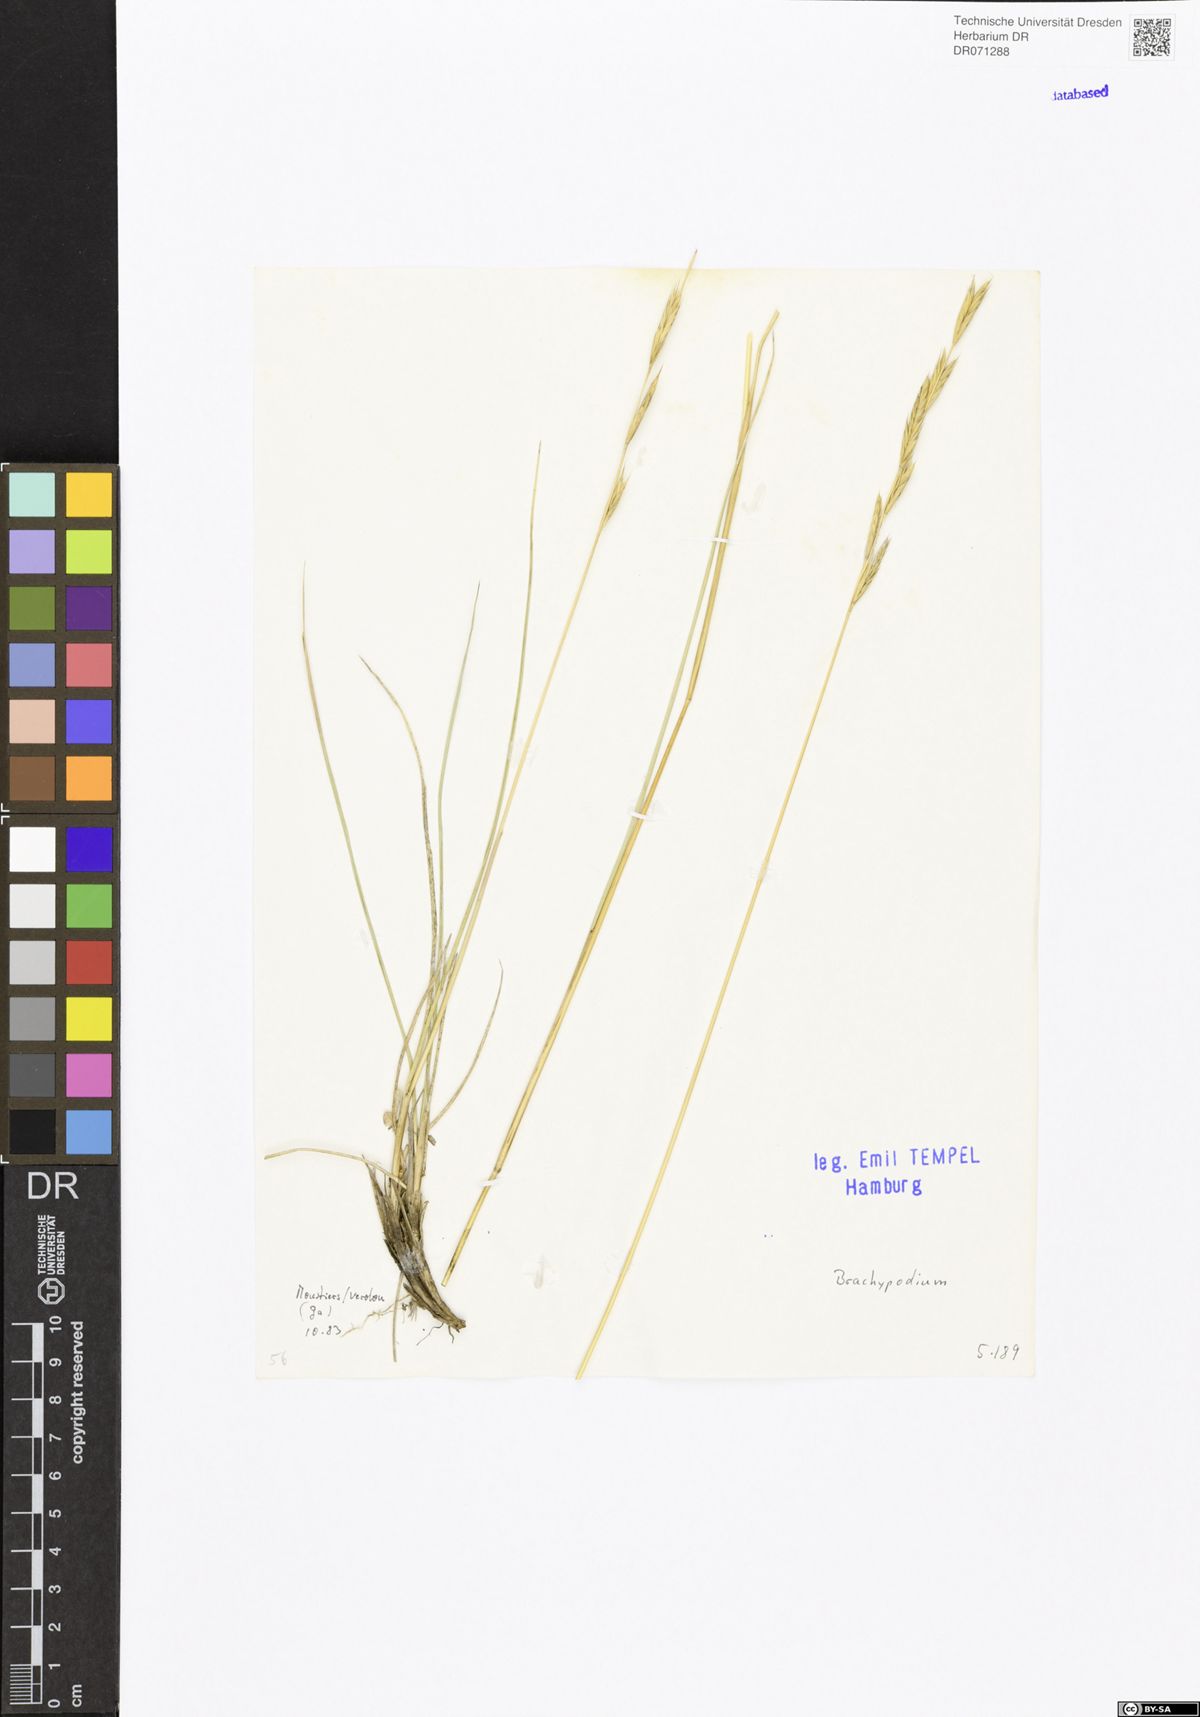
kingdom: Plantae
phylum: Tracheophyta
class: Liliopsida
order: Poales
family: Poaceae
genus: Brachypodium
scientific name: Brachypodium
